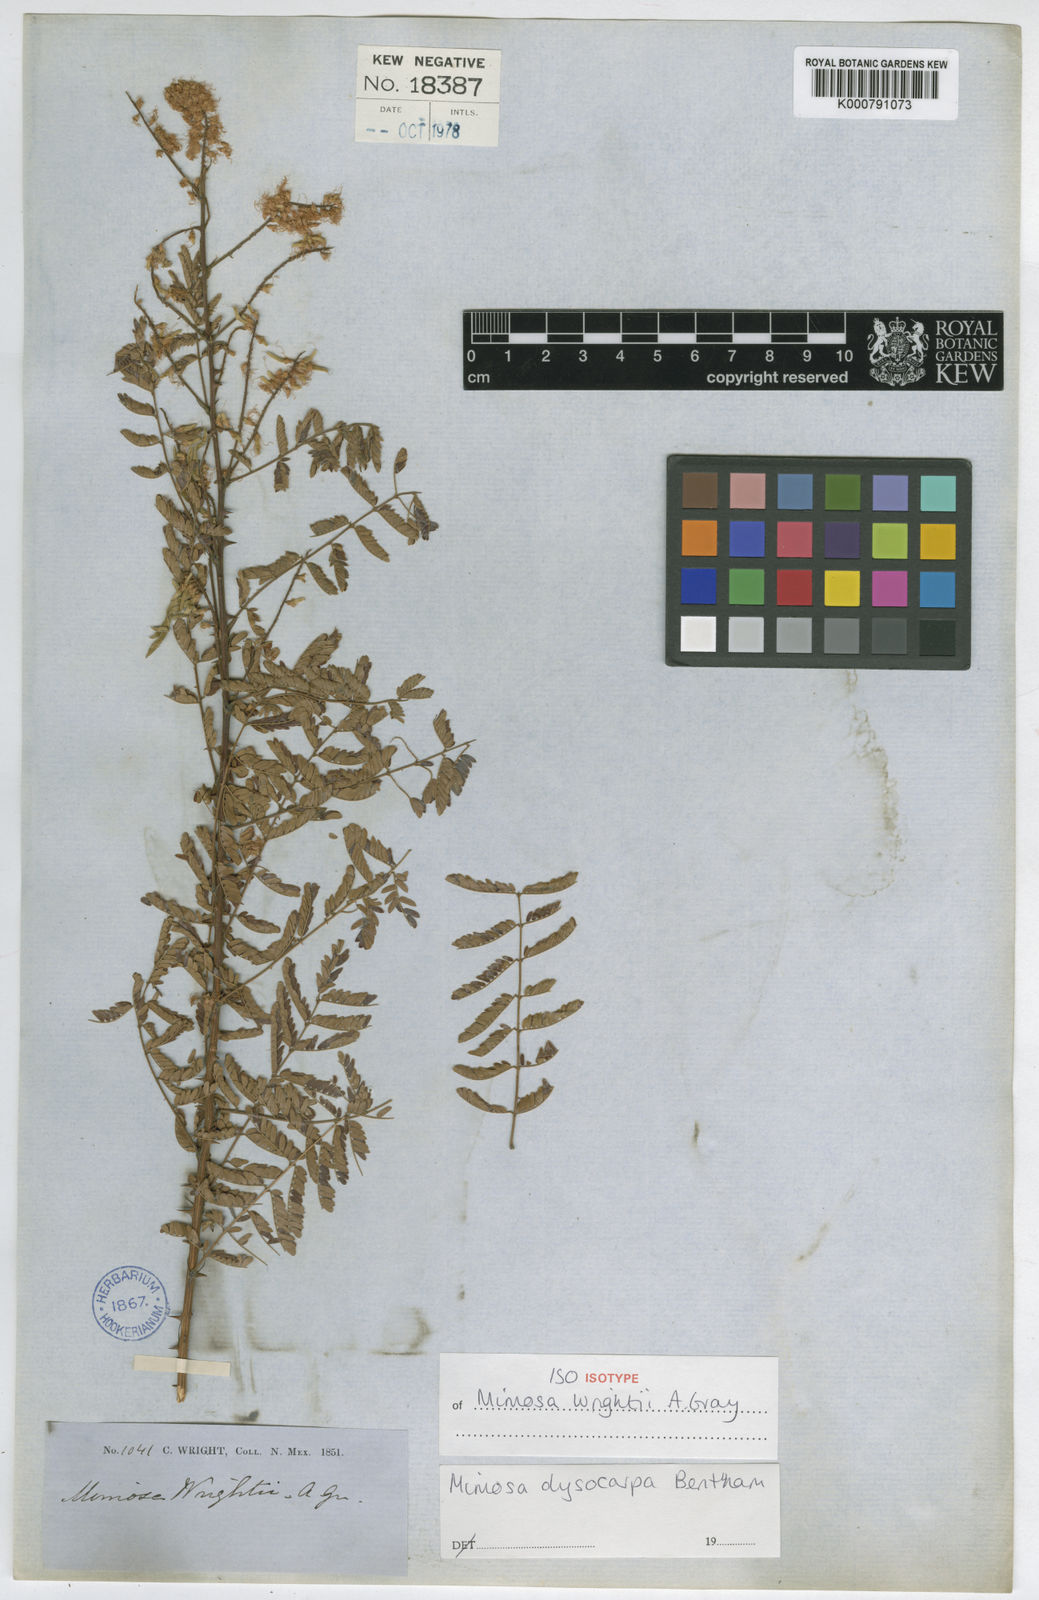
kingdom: Plantae
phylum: Tracheophyta
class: Magnoliopsida
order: Fabales
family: Fabaceae
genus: Mimosa
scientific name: Mimosa dysocarpa
